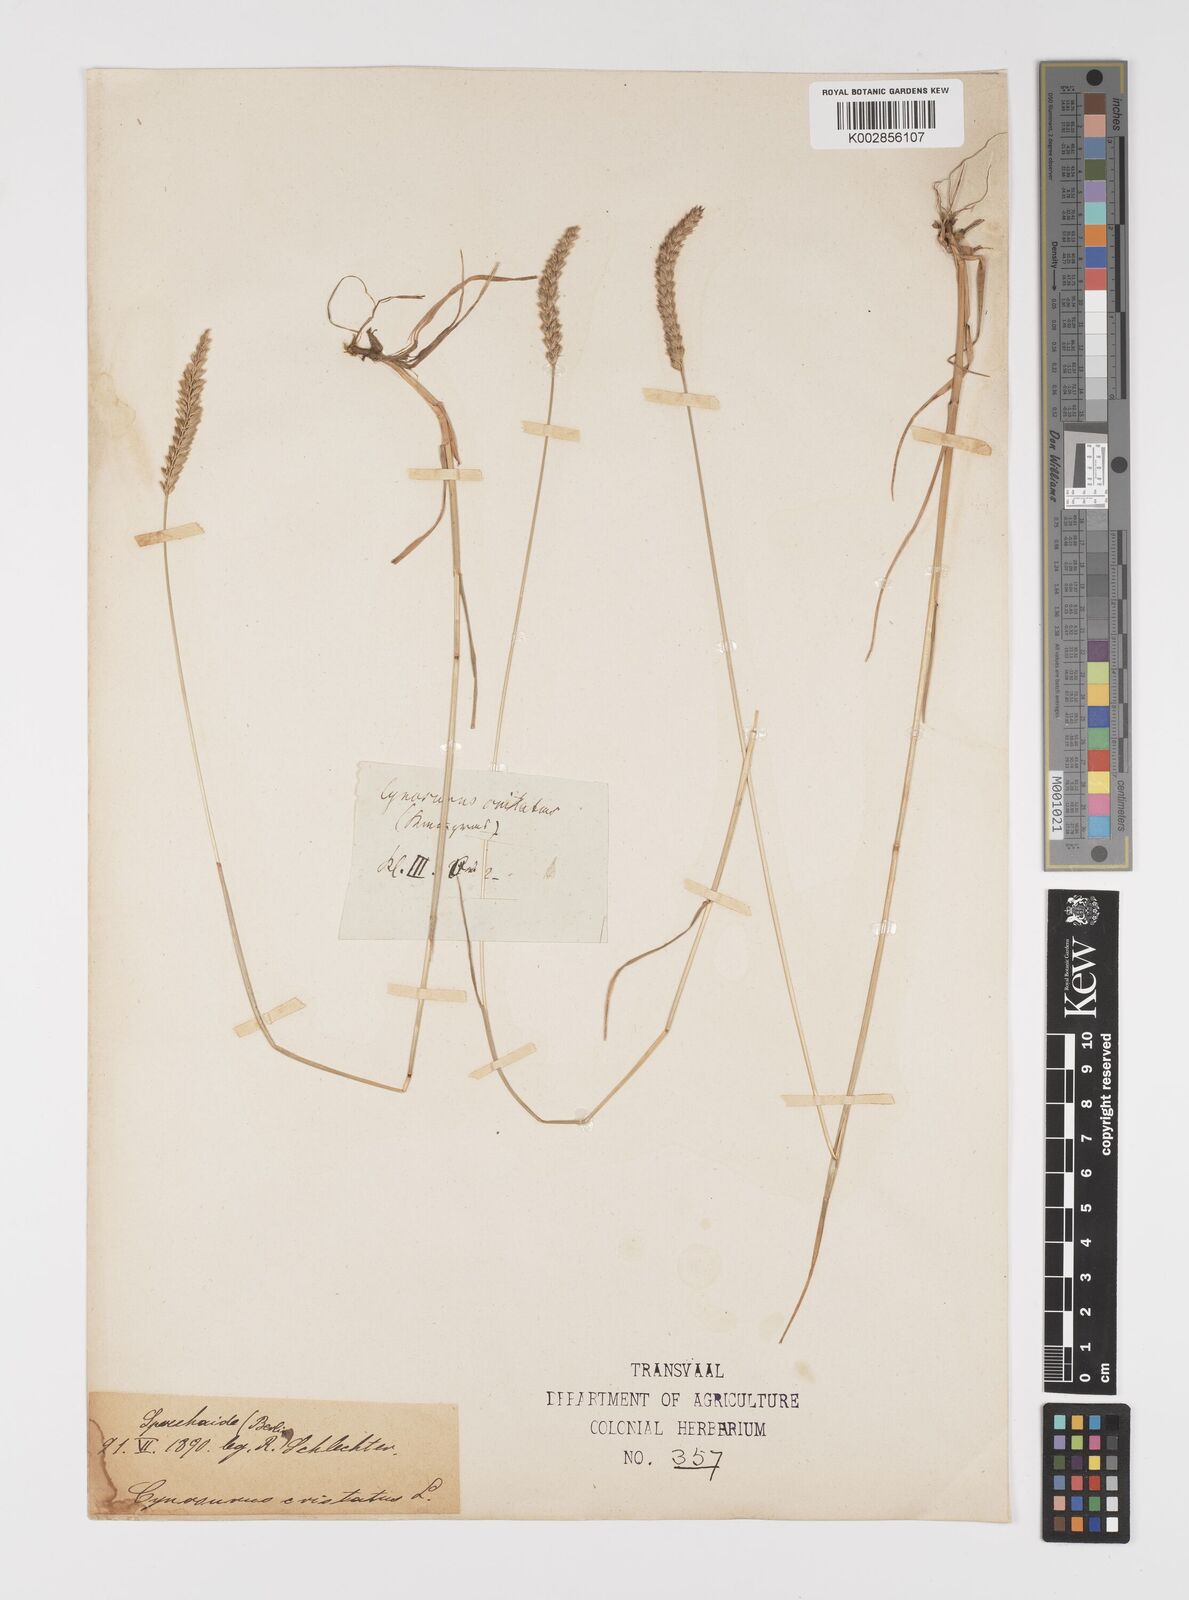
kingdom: Plantae
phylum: Tracheophyta
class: Liliopsida
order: Poales
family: Poaceae
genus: Cynosurus
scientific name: Cynosurus cristatus
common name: Crested dog's-tail
